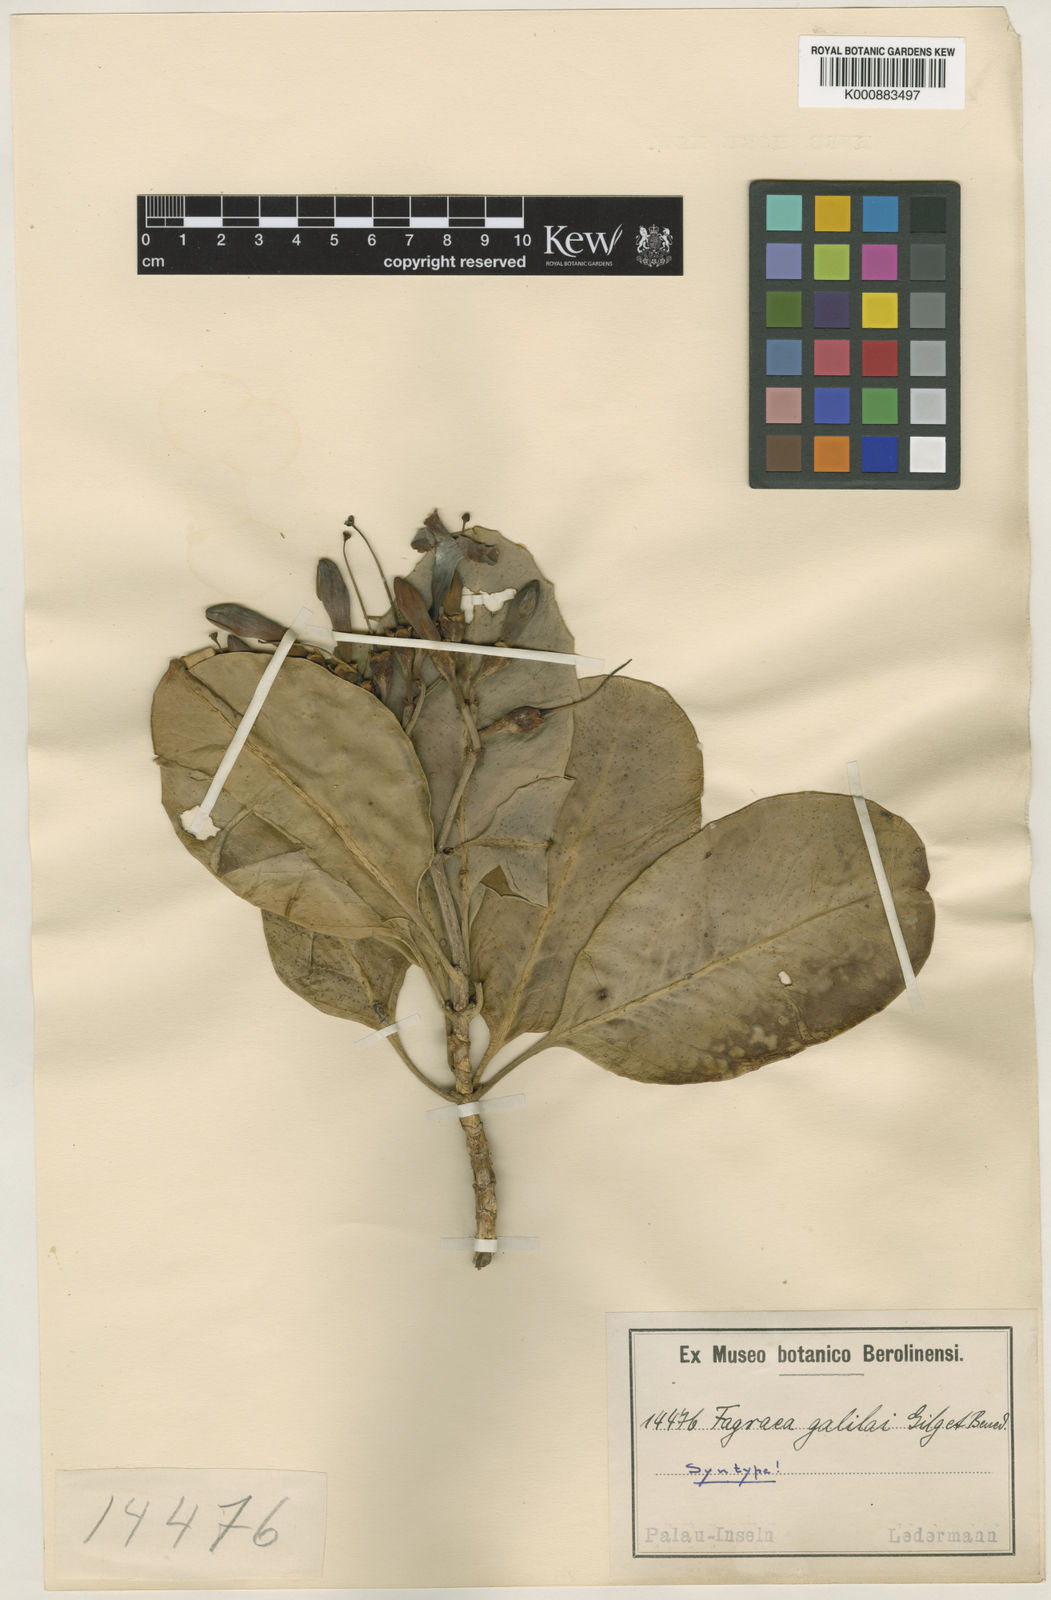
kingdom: Plantae
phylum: Tracheophyta
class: Magnoliopsida
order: Gentianales
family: Gentianaceae
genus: Fagraea
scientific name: Fagraea berteroana
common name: Cape jitta
